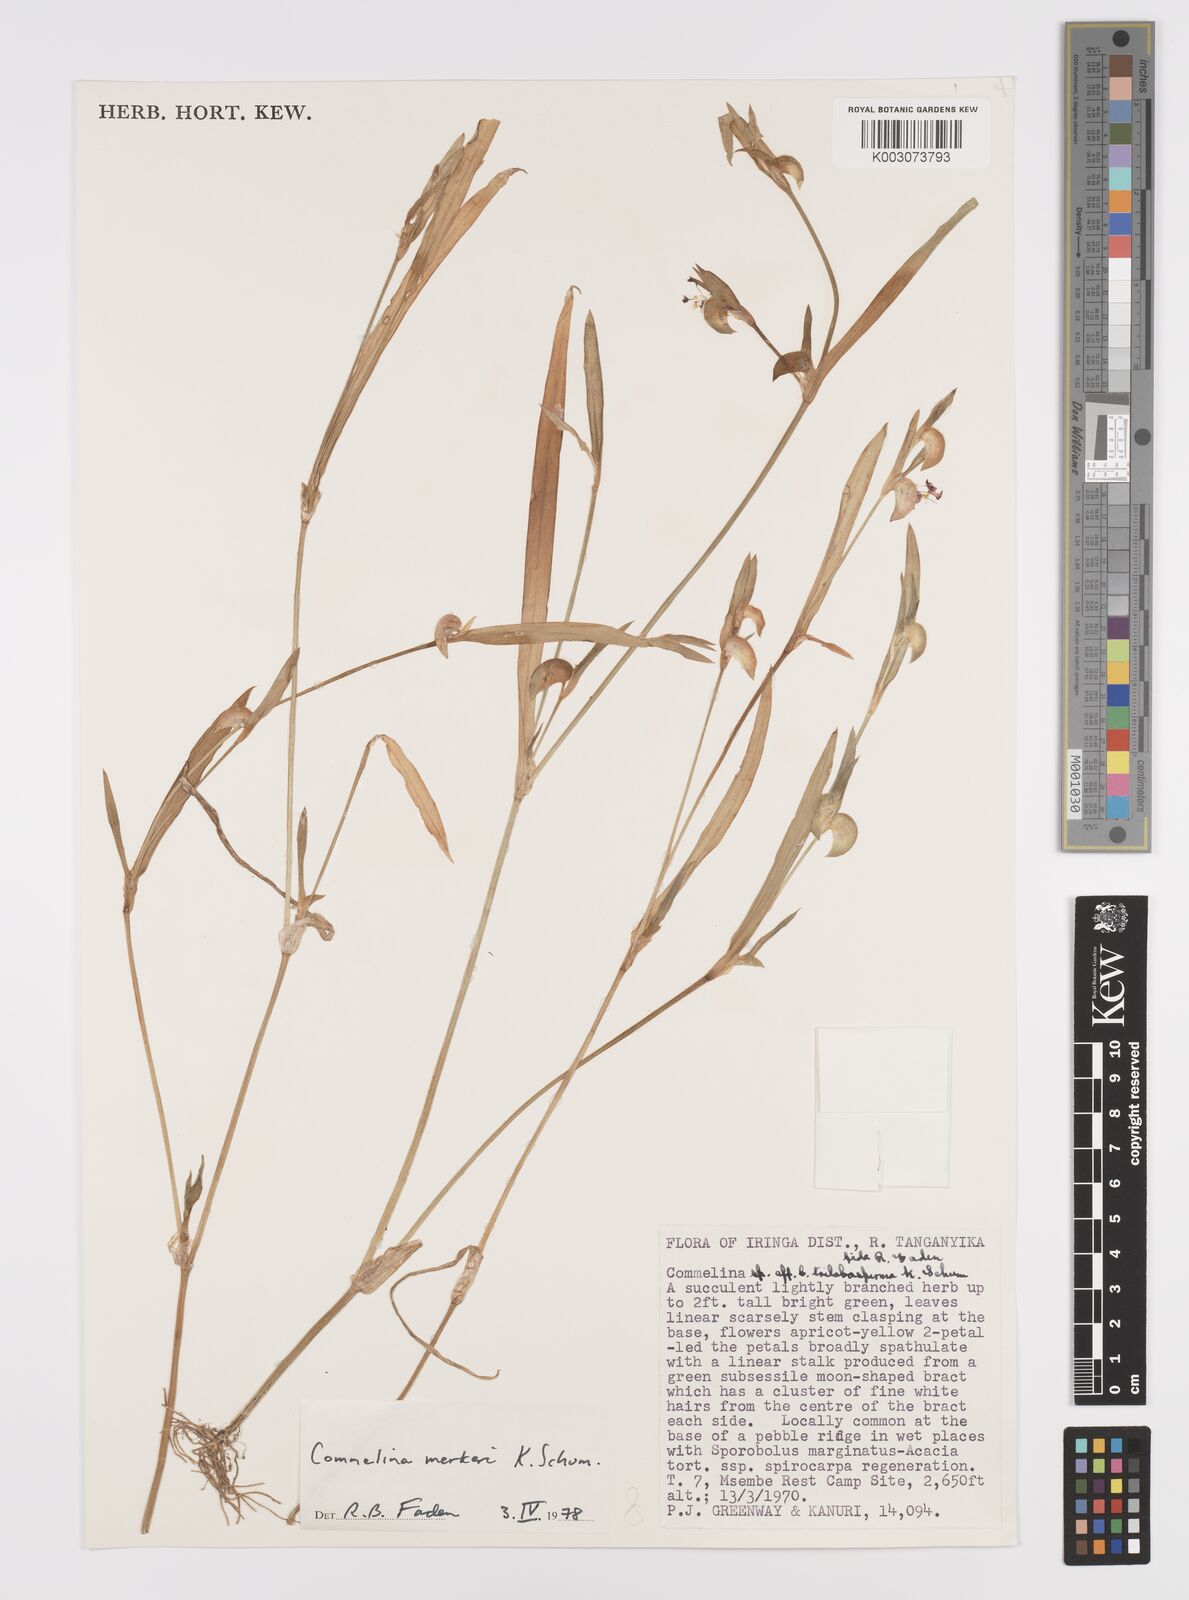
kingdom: Plantae
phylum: Tracheophyta
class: Liliopsida
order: Commelinales
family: Commelinaceae
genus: Commelina
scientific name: Commelina merkeri
